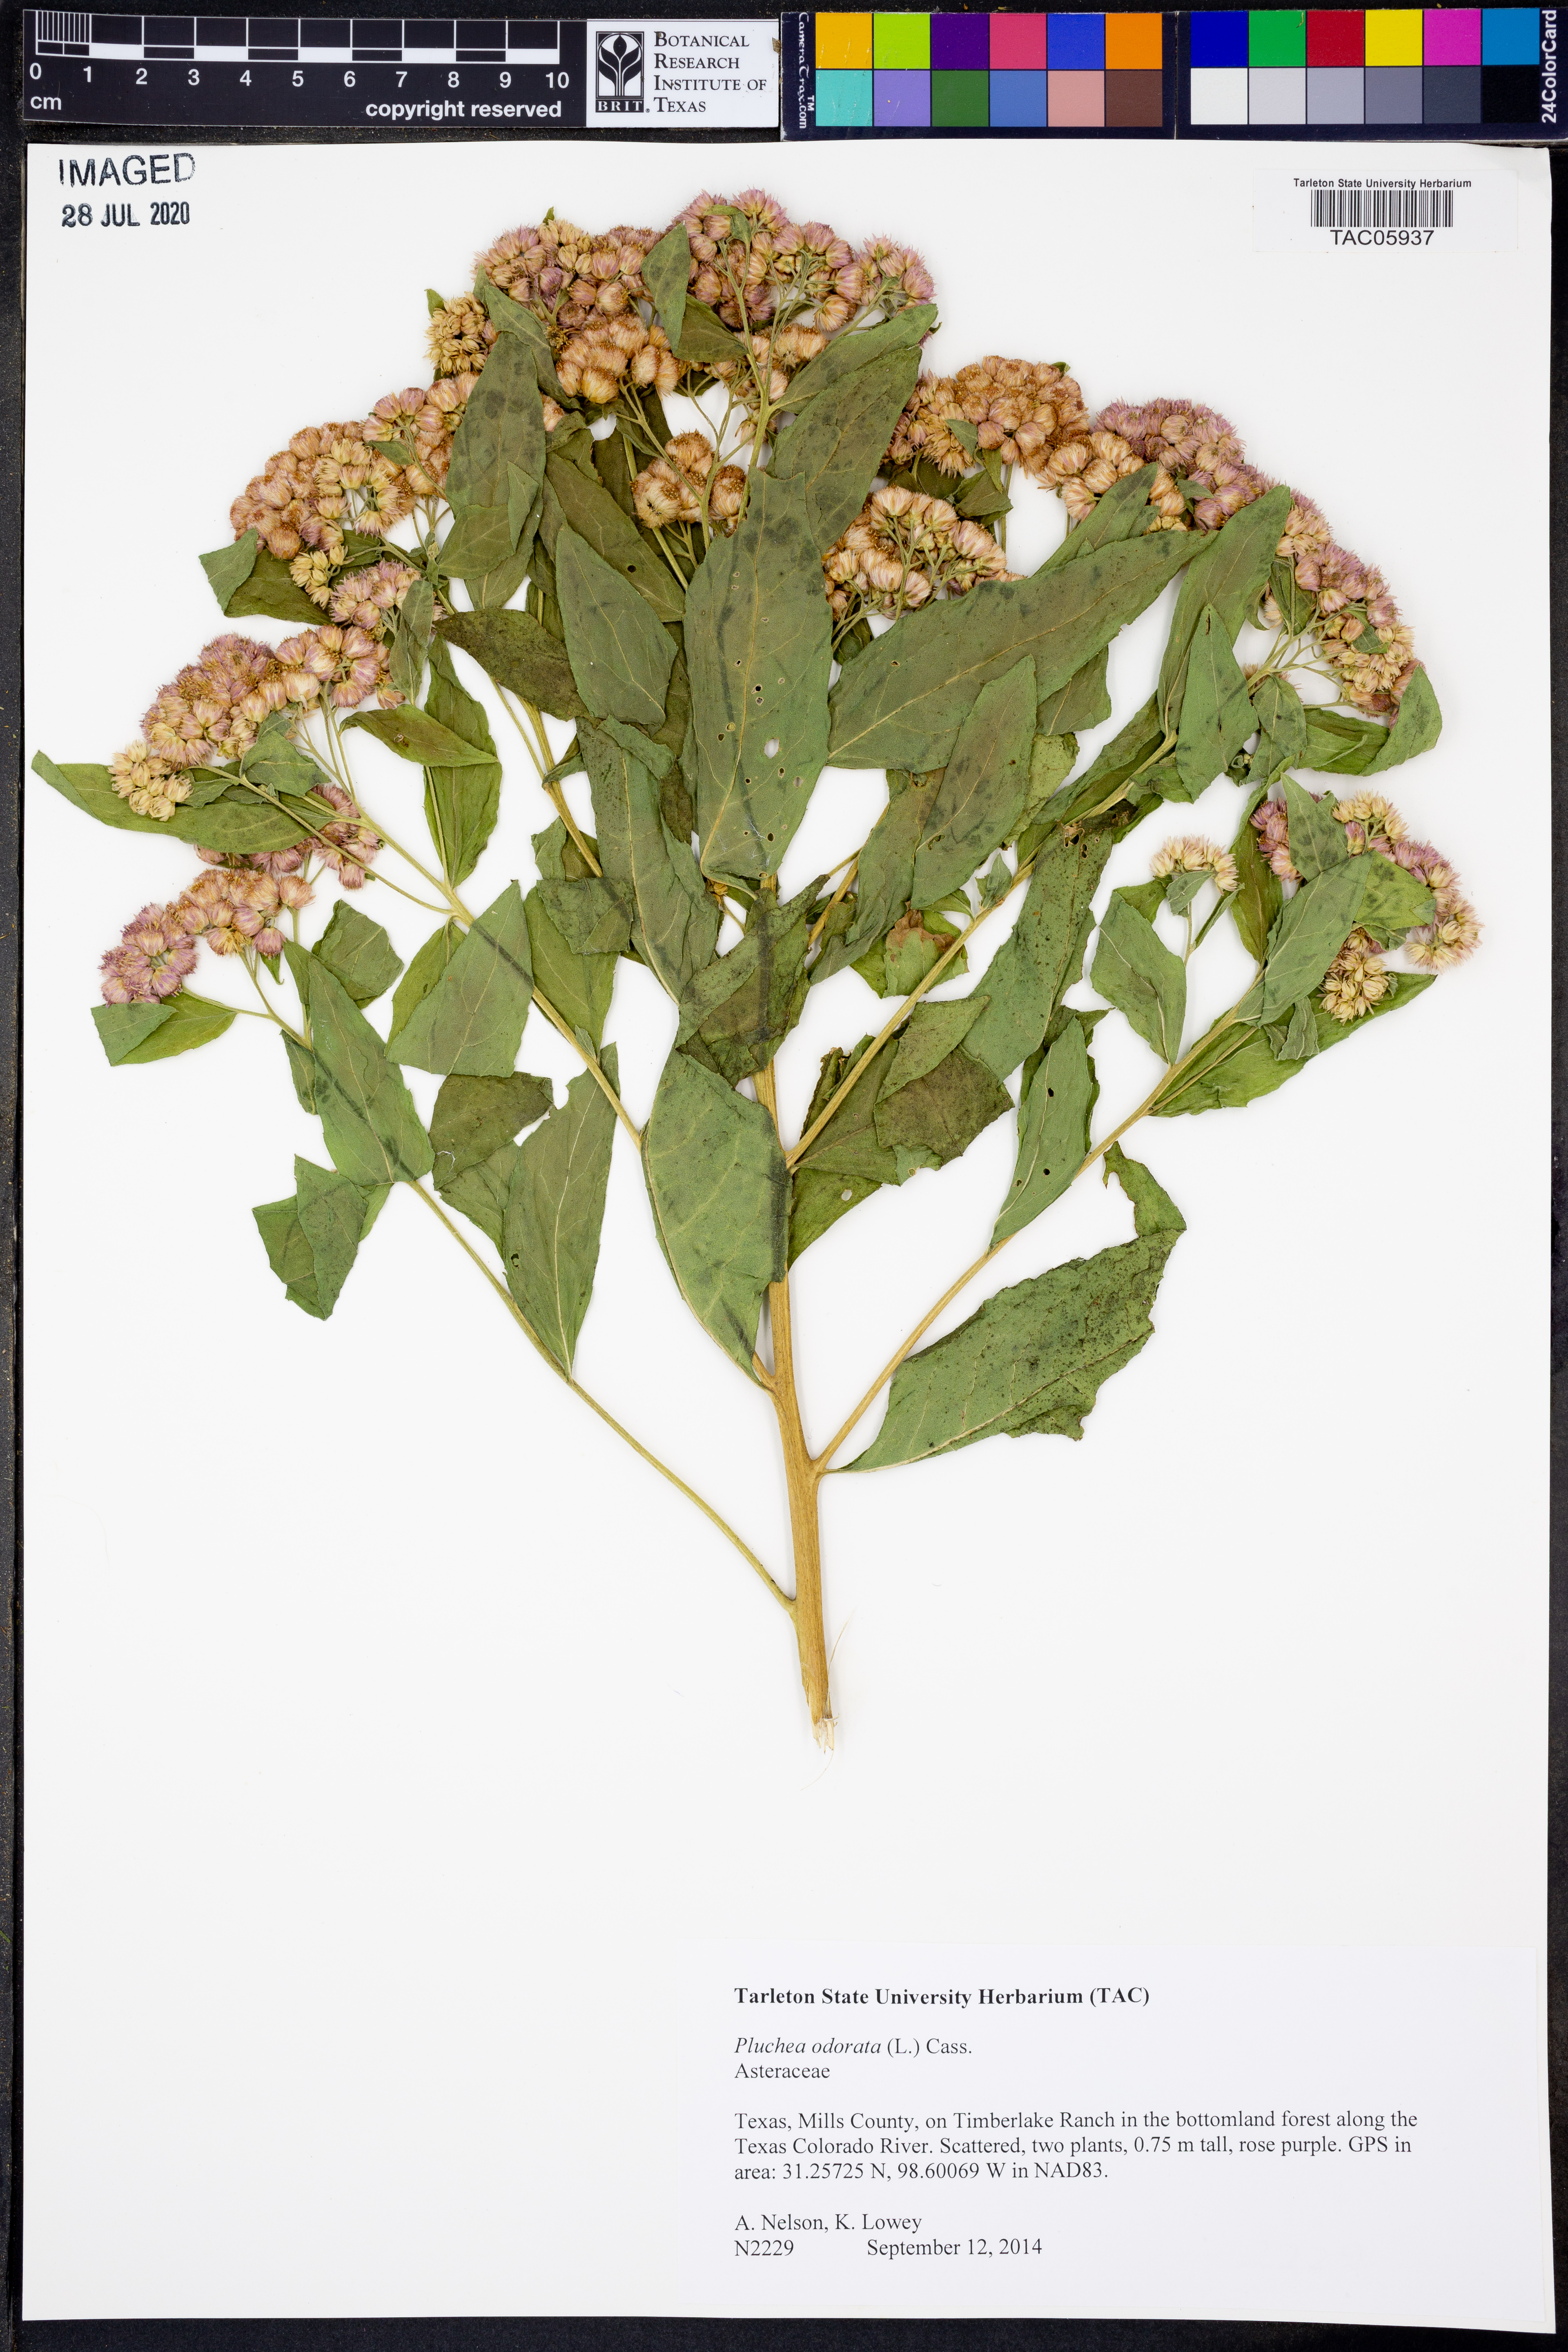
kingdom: Plantae
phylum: Tracheophyta
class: Magnoliopsida
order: Asterales
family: Asteraceae
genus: Pluchea
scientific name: Pluchea odorata
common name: Saltmarsh fleabane
